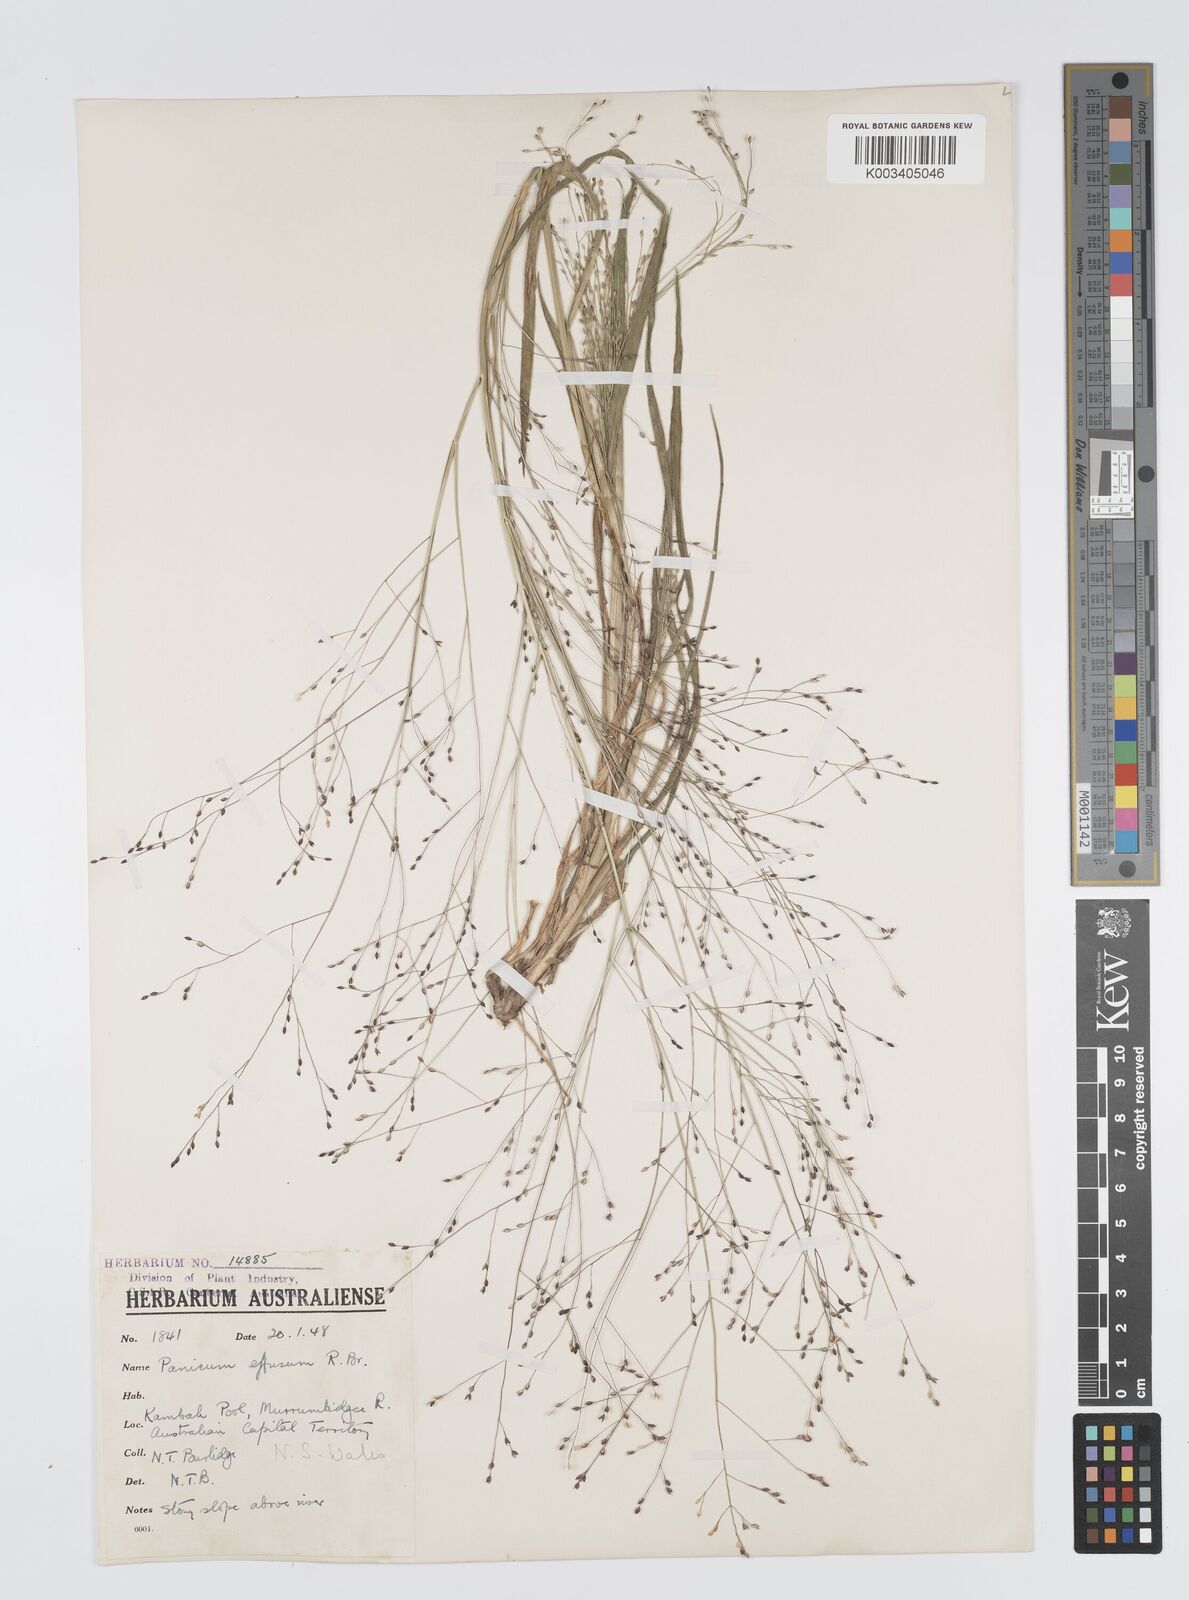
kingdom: Plantae
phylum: Tracheophyta
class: Liliopsida
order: Poales
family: Poaceae
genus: Panicum
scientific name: Panicum effusum
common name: Hairy panic grass
